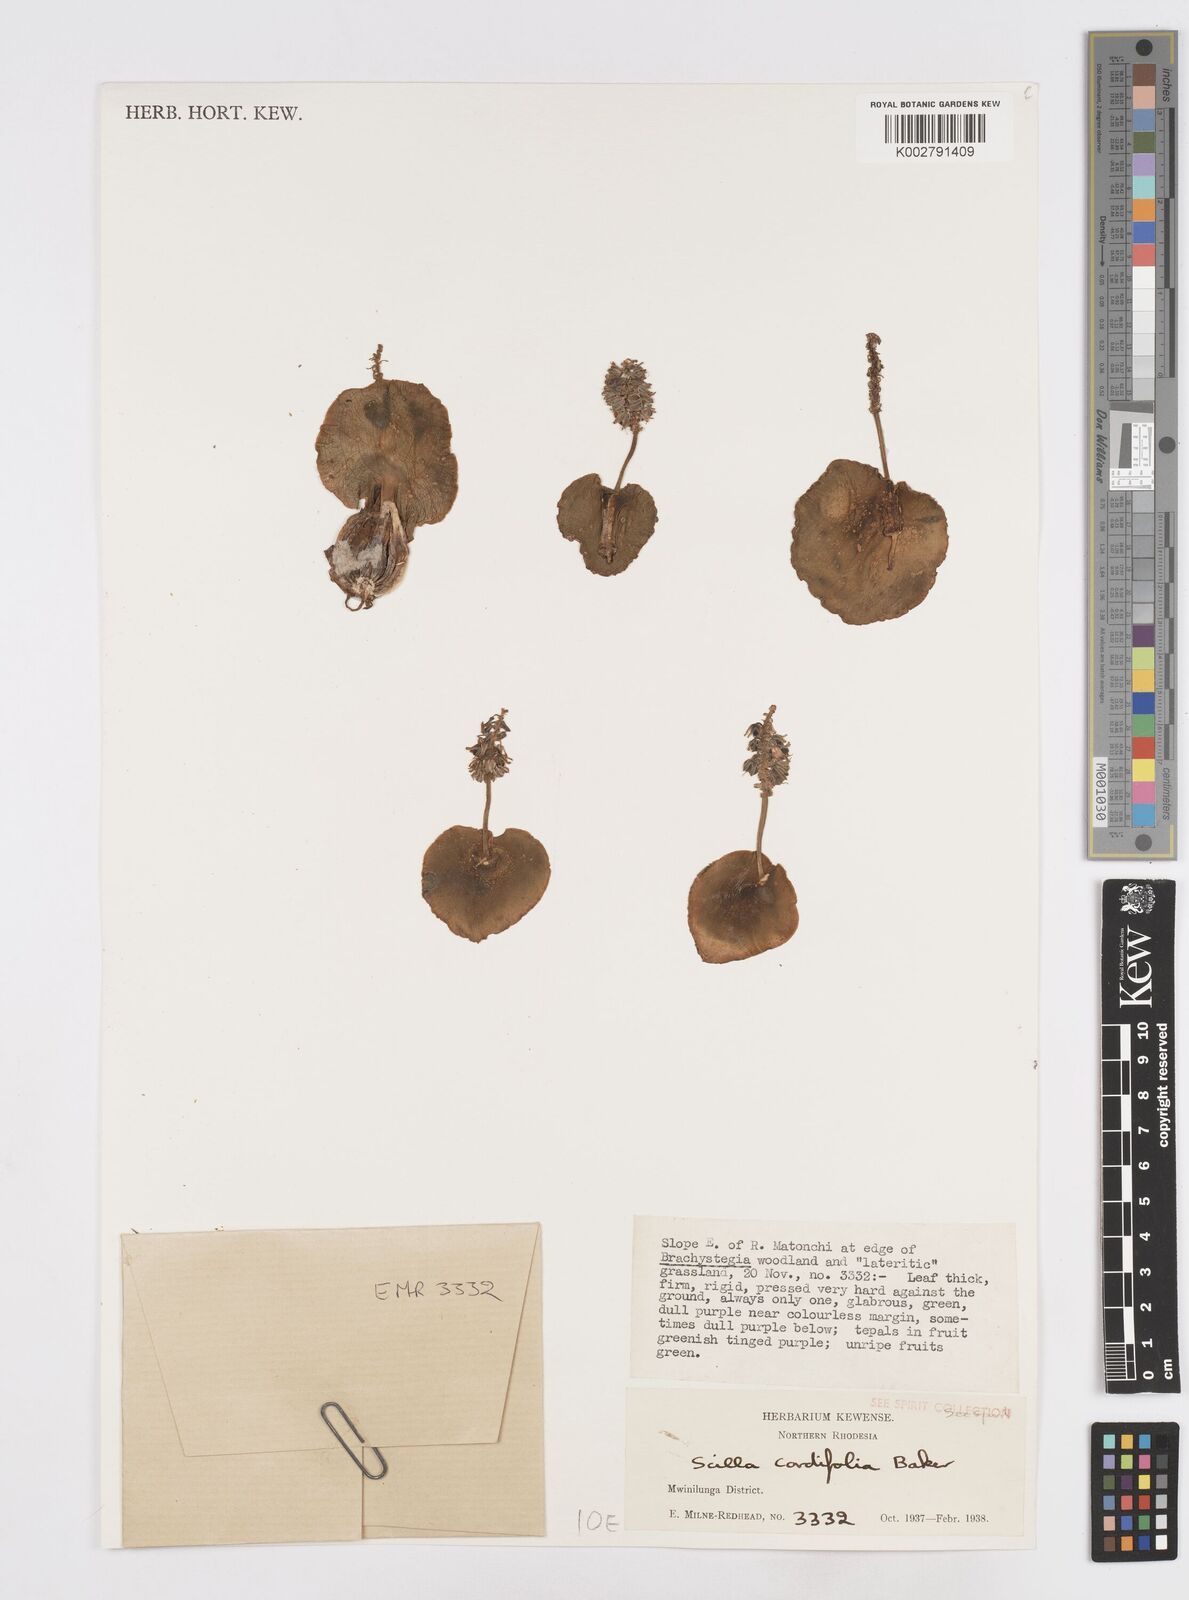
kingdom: Plantae
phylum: Tracheophyta
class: Liliopsida
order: Asparagales
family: Asparagaceae
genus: Ledebouria
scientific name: Ledebouria cordifolia
